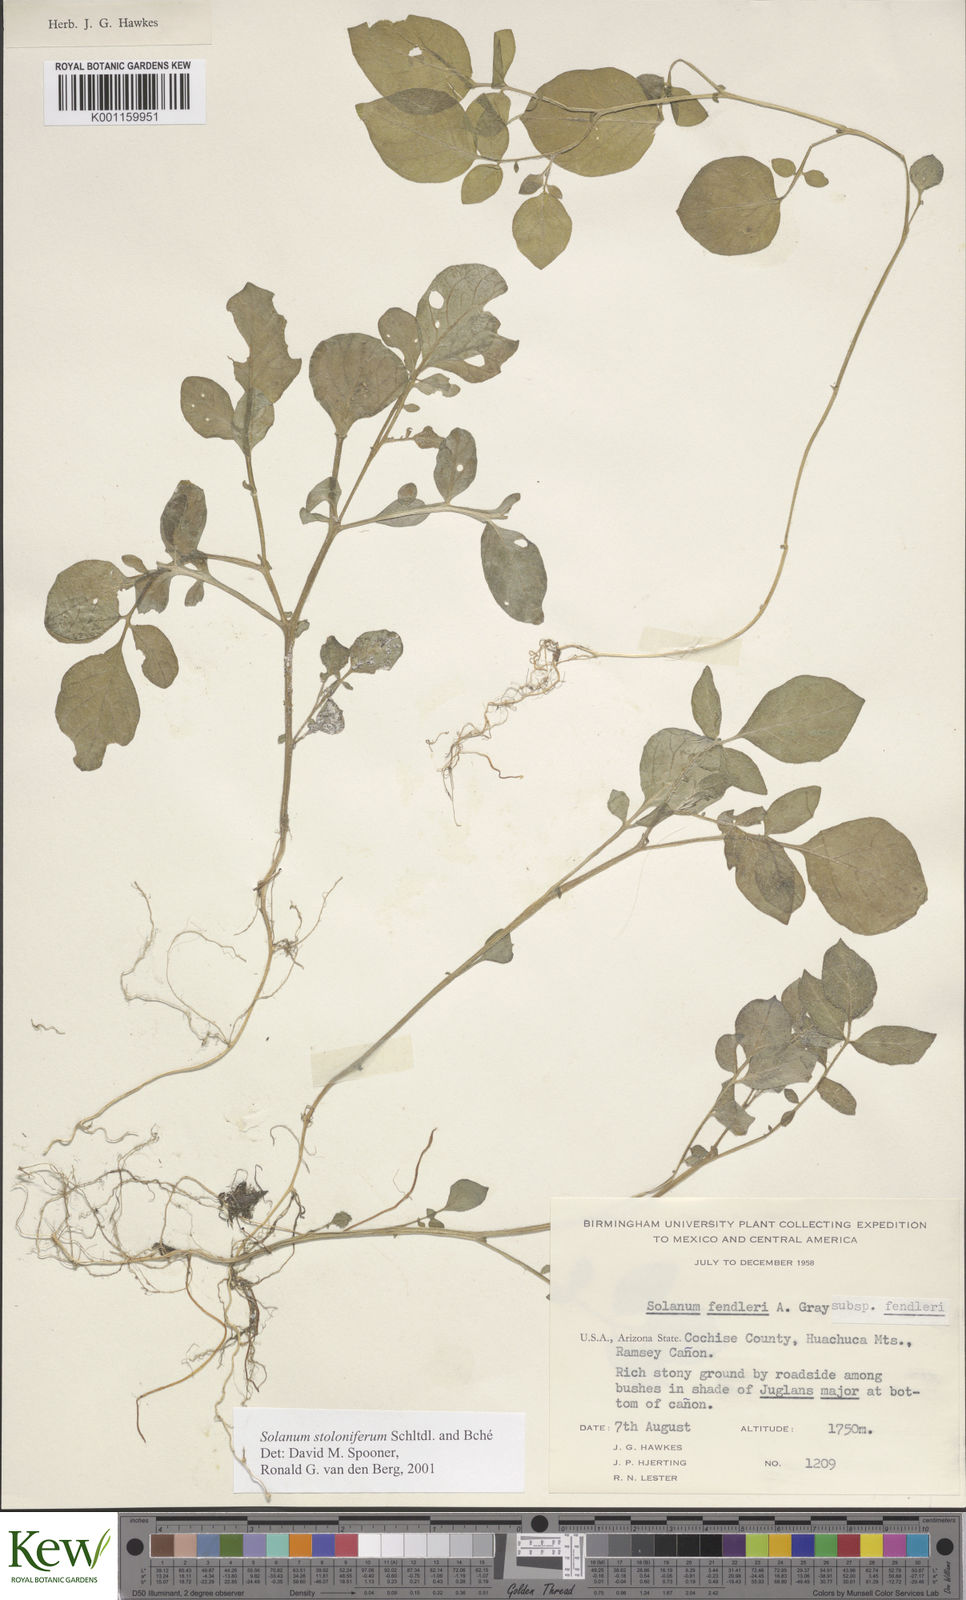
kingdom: Plantae
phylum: Tracheophyta
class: Magnoliopsida
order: Solanales
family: Solanaceae
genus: Solanum
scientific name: Solanum stoloniferum
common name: Fendler's nighshade
